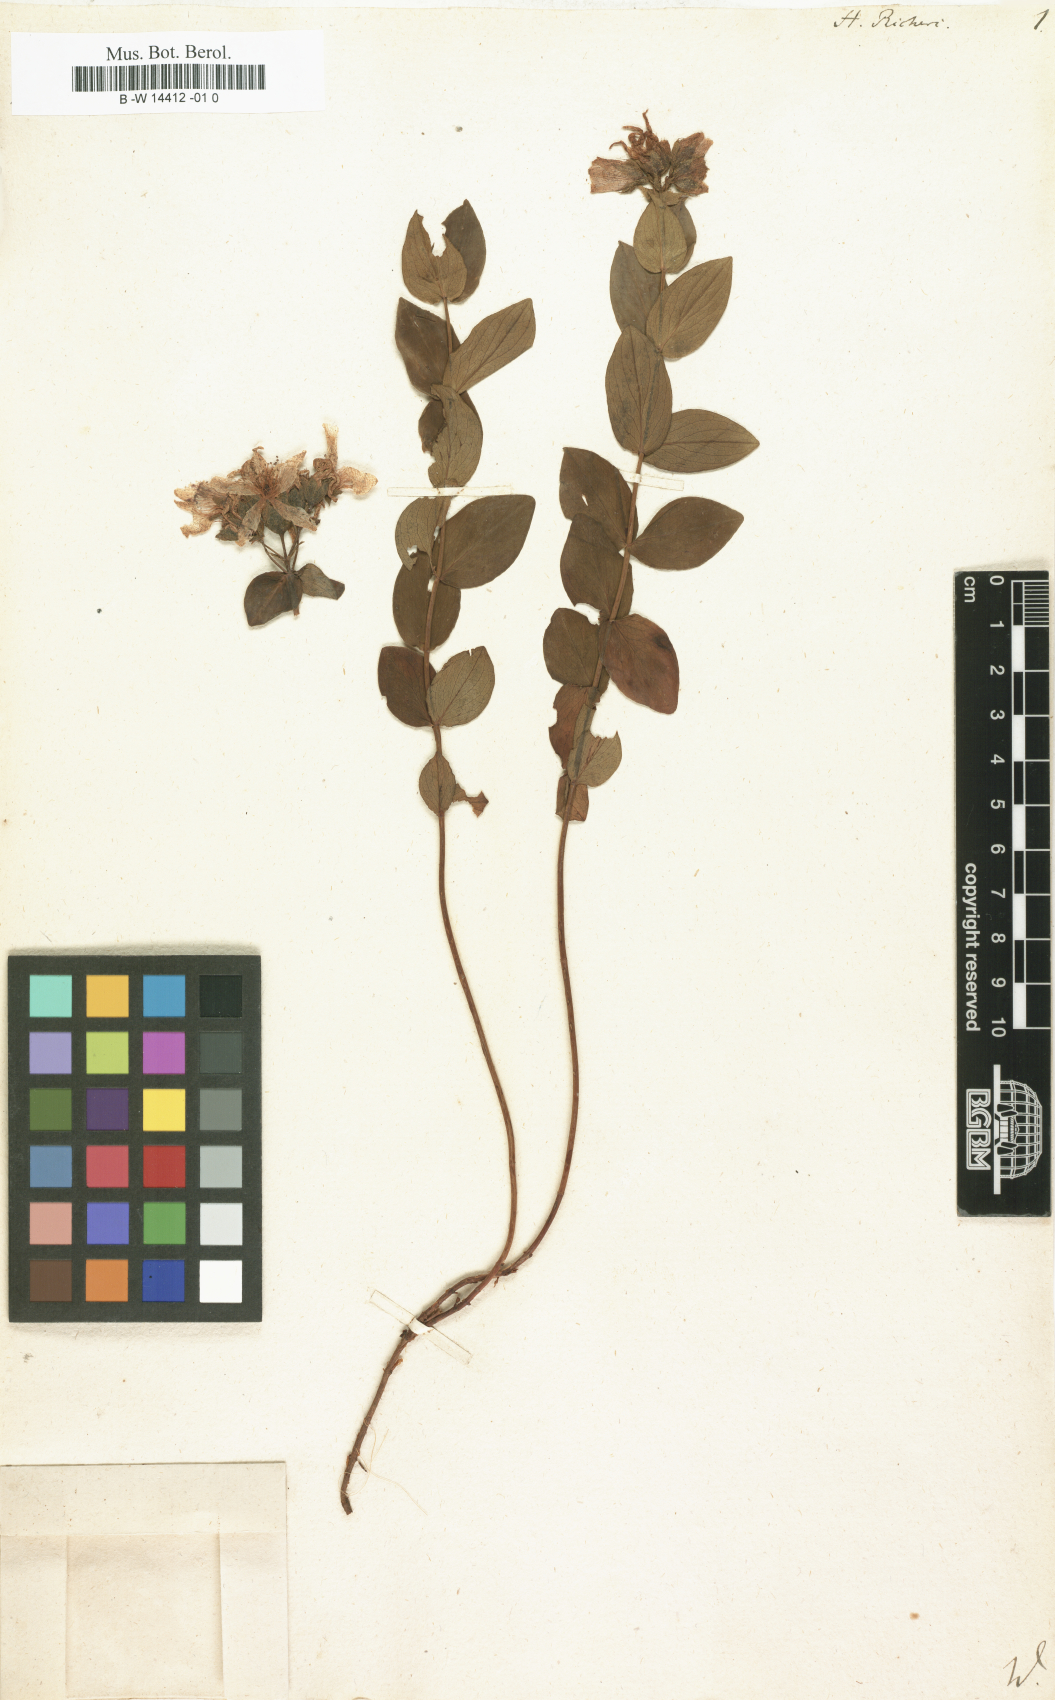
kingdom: Plantae
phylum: Tracheophyta
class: Magnoliopsida
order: Malpighiales
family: Hypericaceae
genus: Hypericum
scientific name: Hypericum richeri
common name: Alpine st john's-wort
